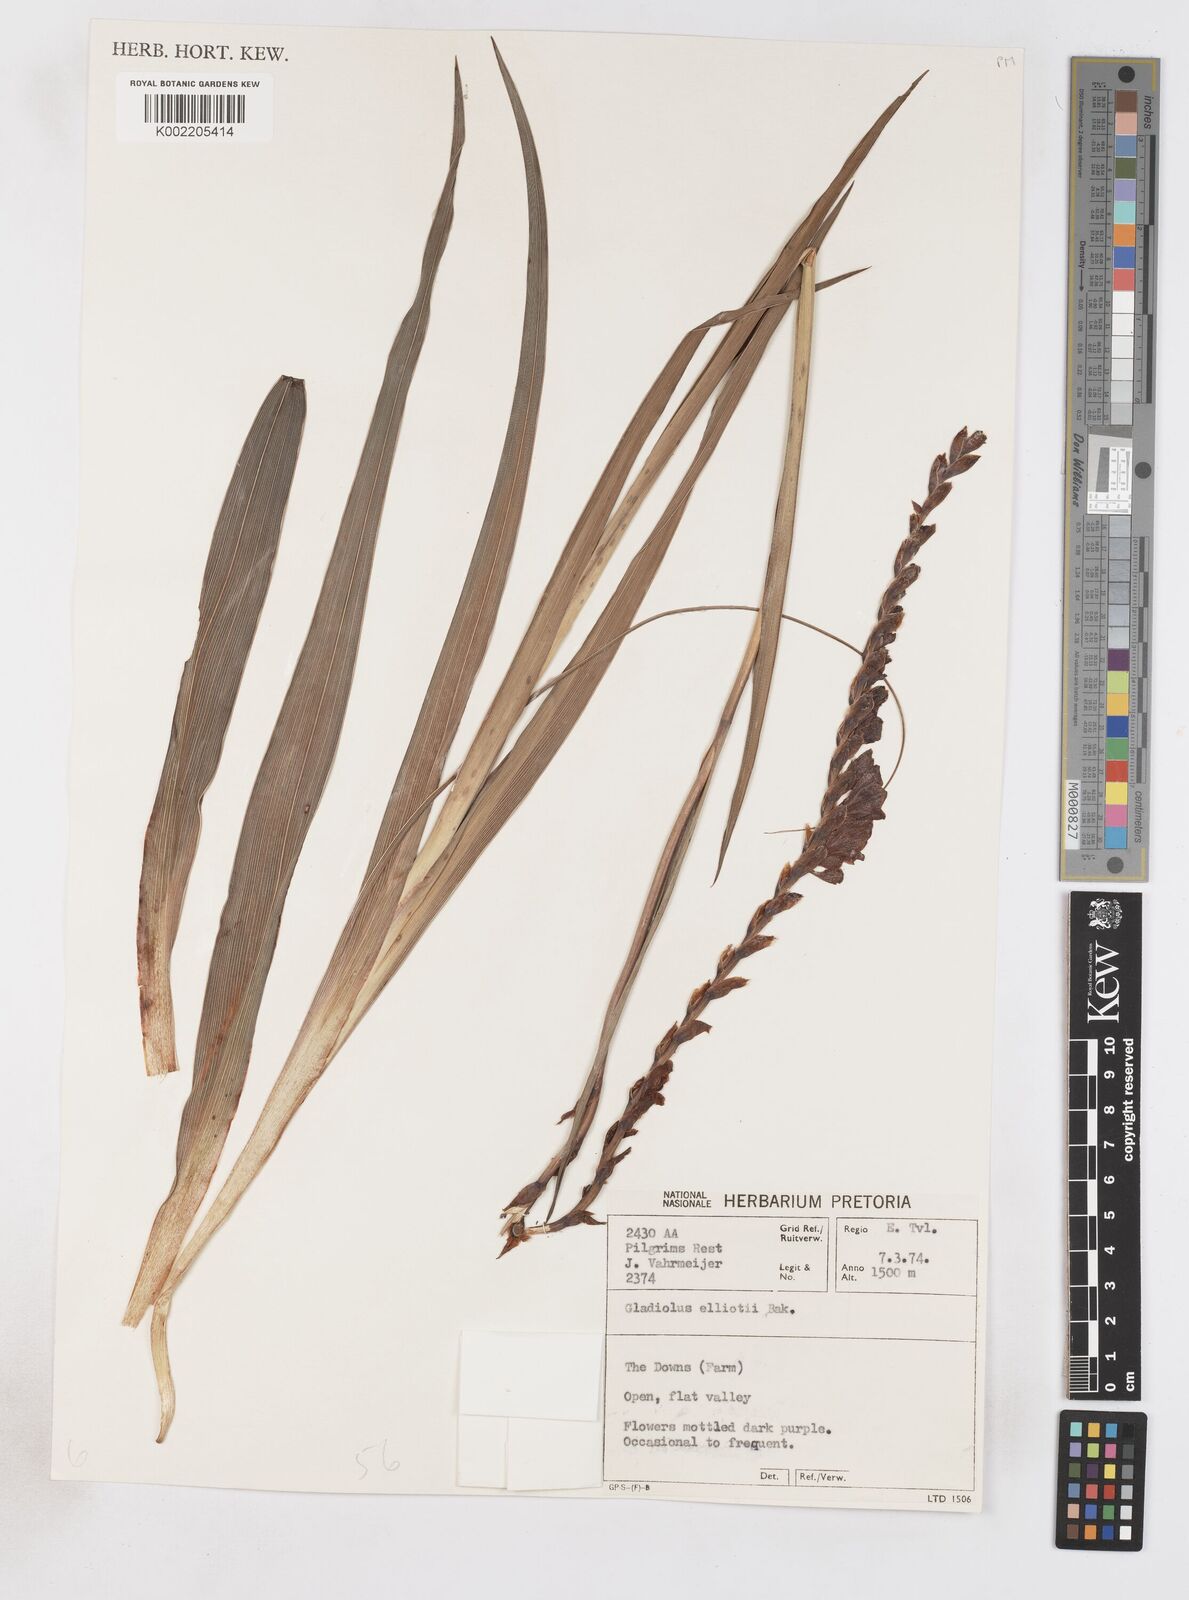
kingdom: Plantae
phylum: Tracheophyta
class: Liliopsida
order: Asparagales
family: Iridaceae
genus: Gladiolus
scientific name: Gladiolus densiflorus
